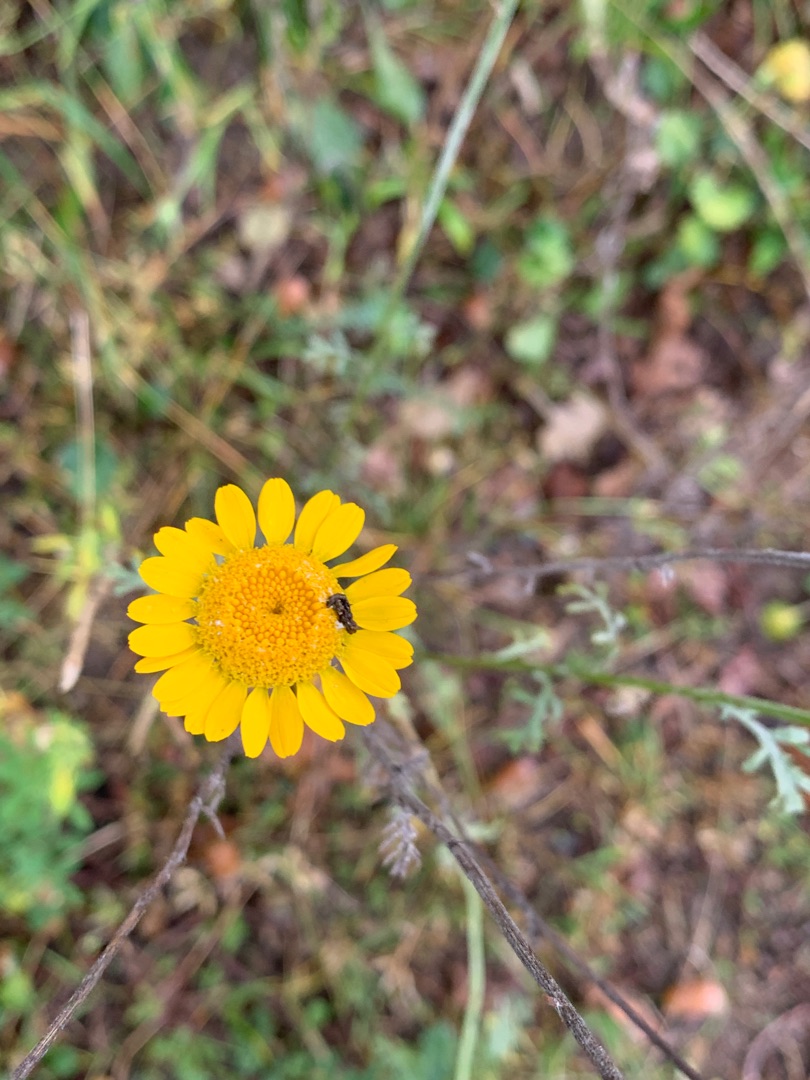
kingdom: Plantae
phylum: Tracheophyta
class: Magnoliopsida
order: Asterales
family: Asteraceae
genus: Cota
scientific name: Cota tinctoria
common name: Farve-gåseurt
